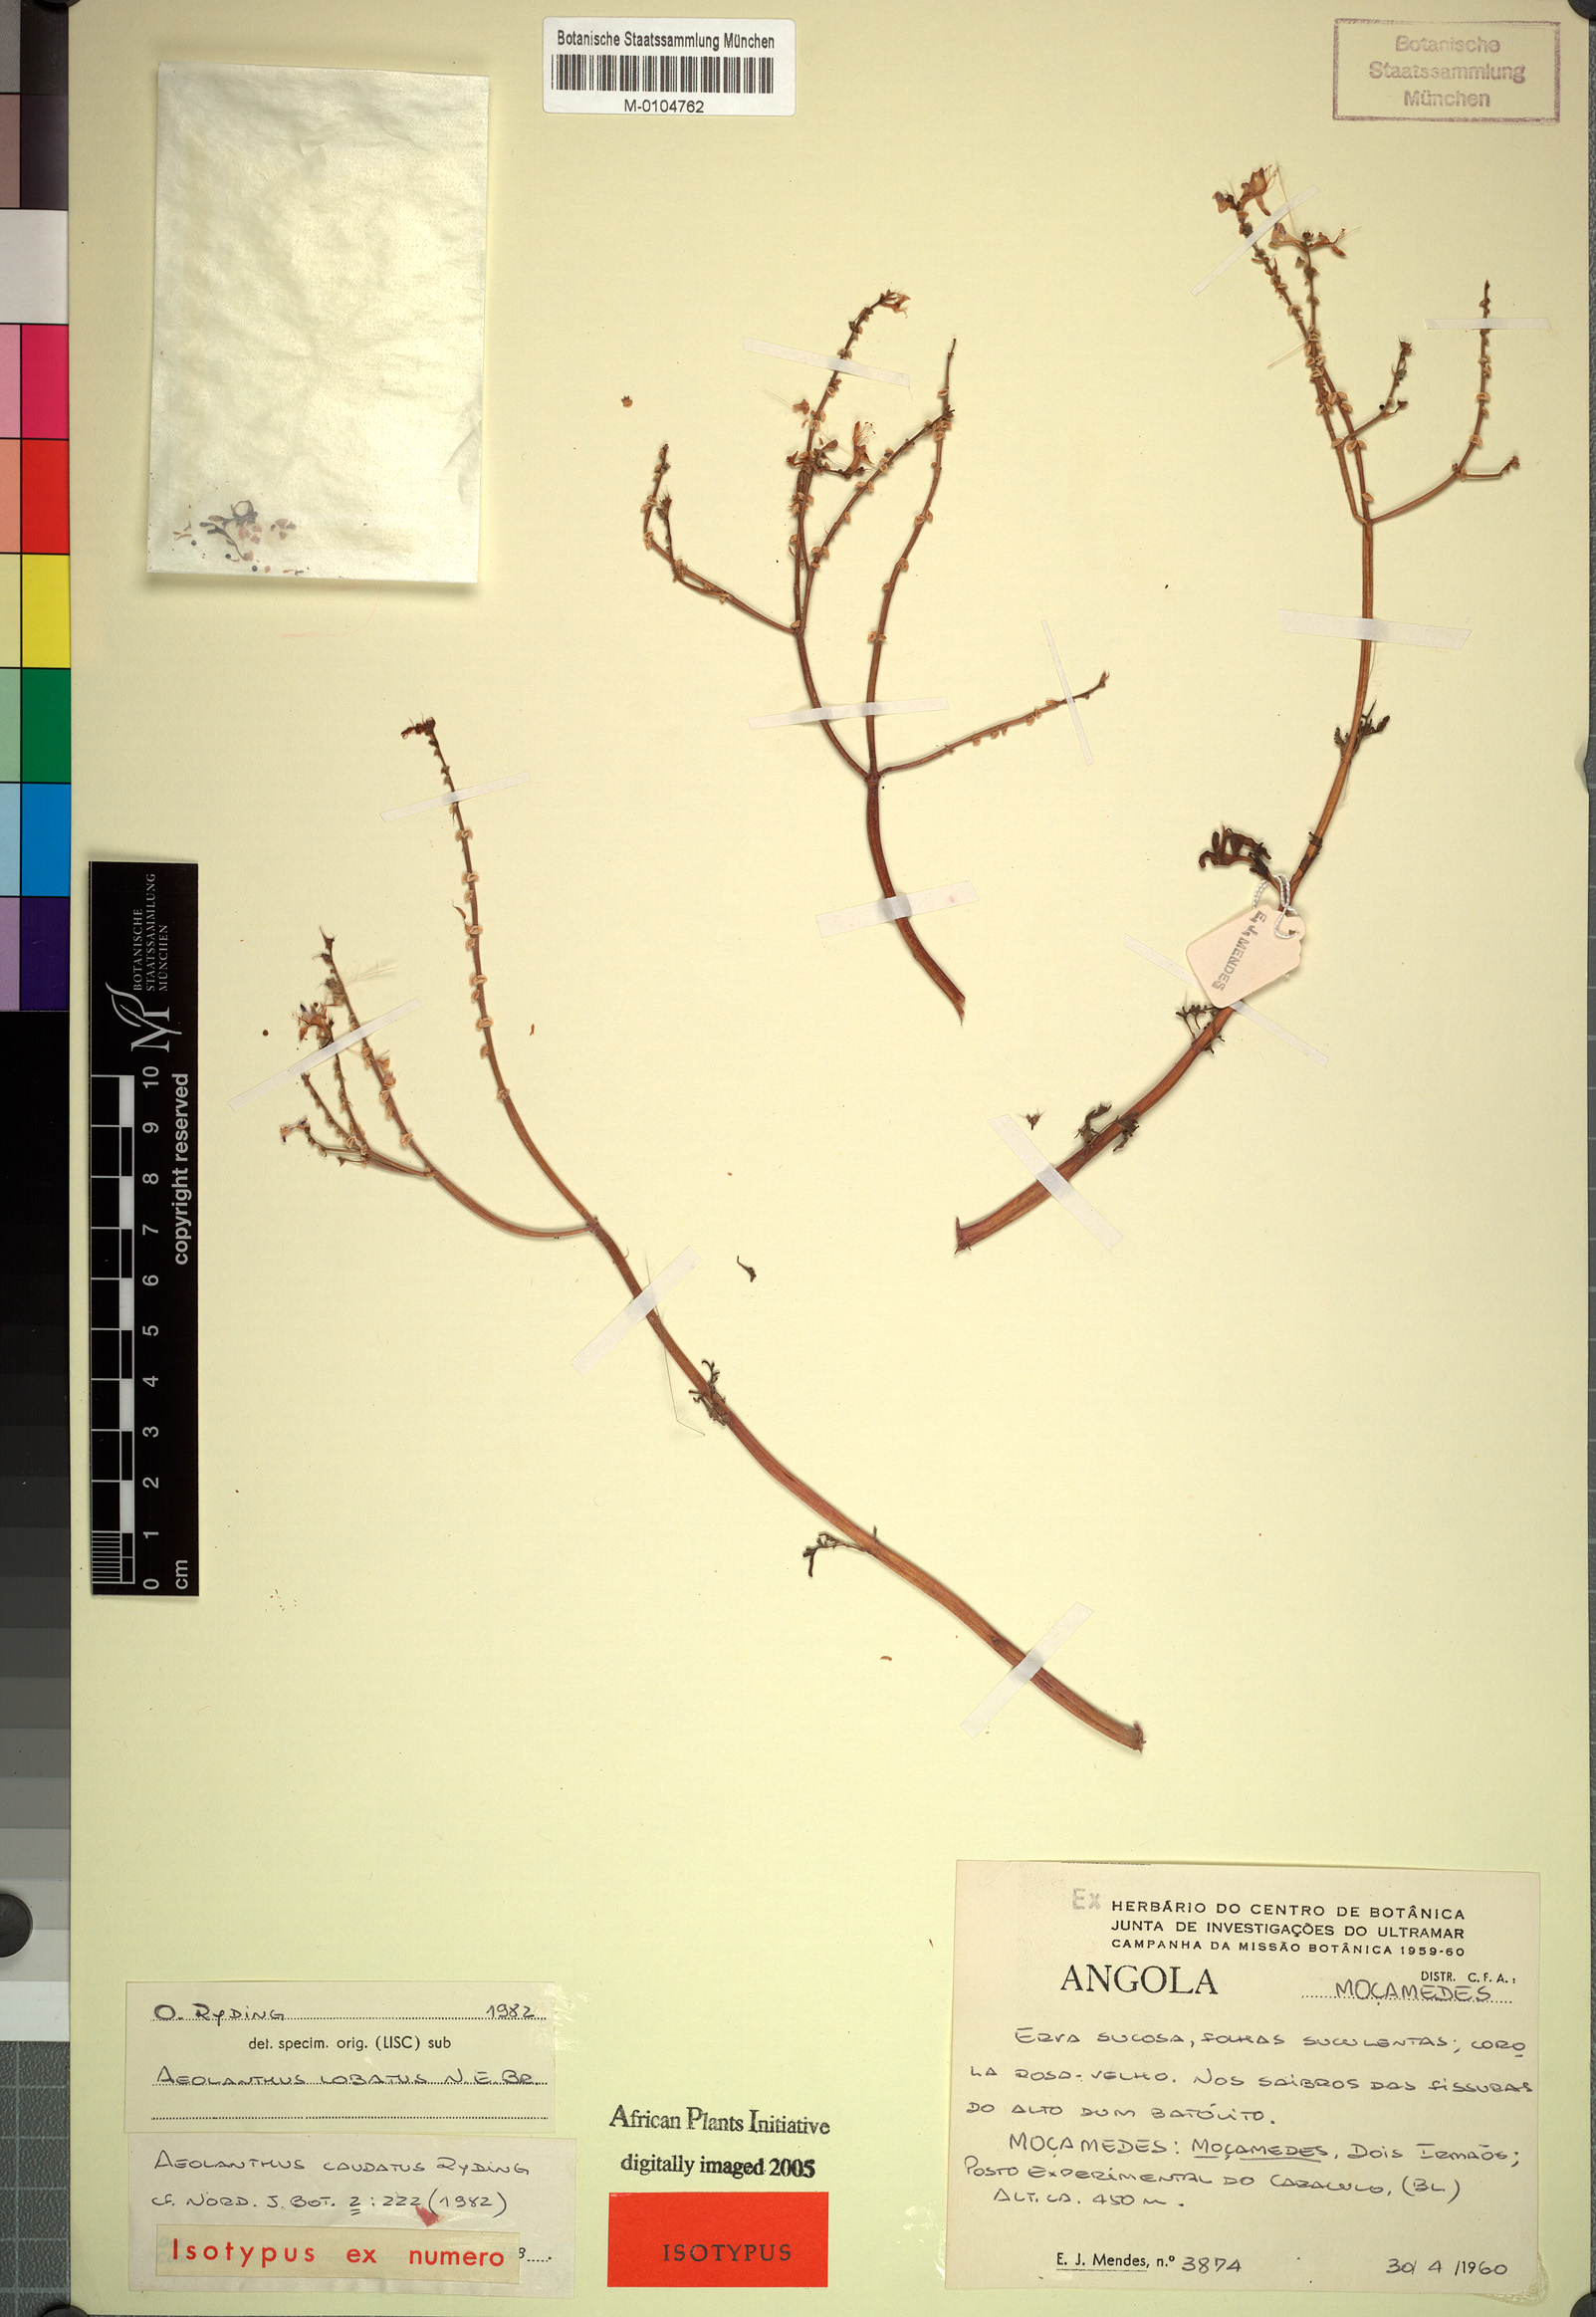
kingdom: Plantae
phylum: Tracheophyta
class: Magnoliopsida
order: Lamiales
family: Lamiaceae
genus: Aeollanthus
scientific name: Aeollanthus caudatus
